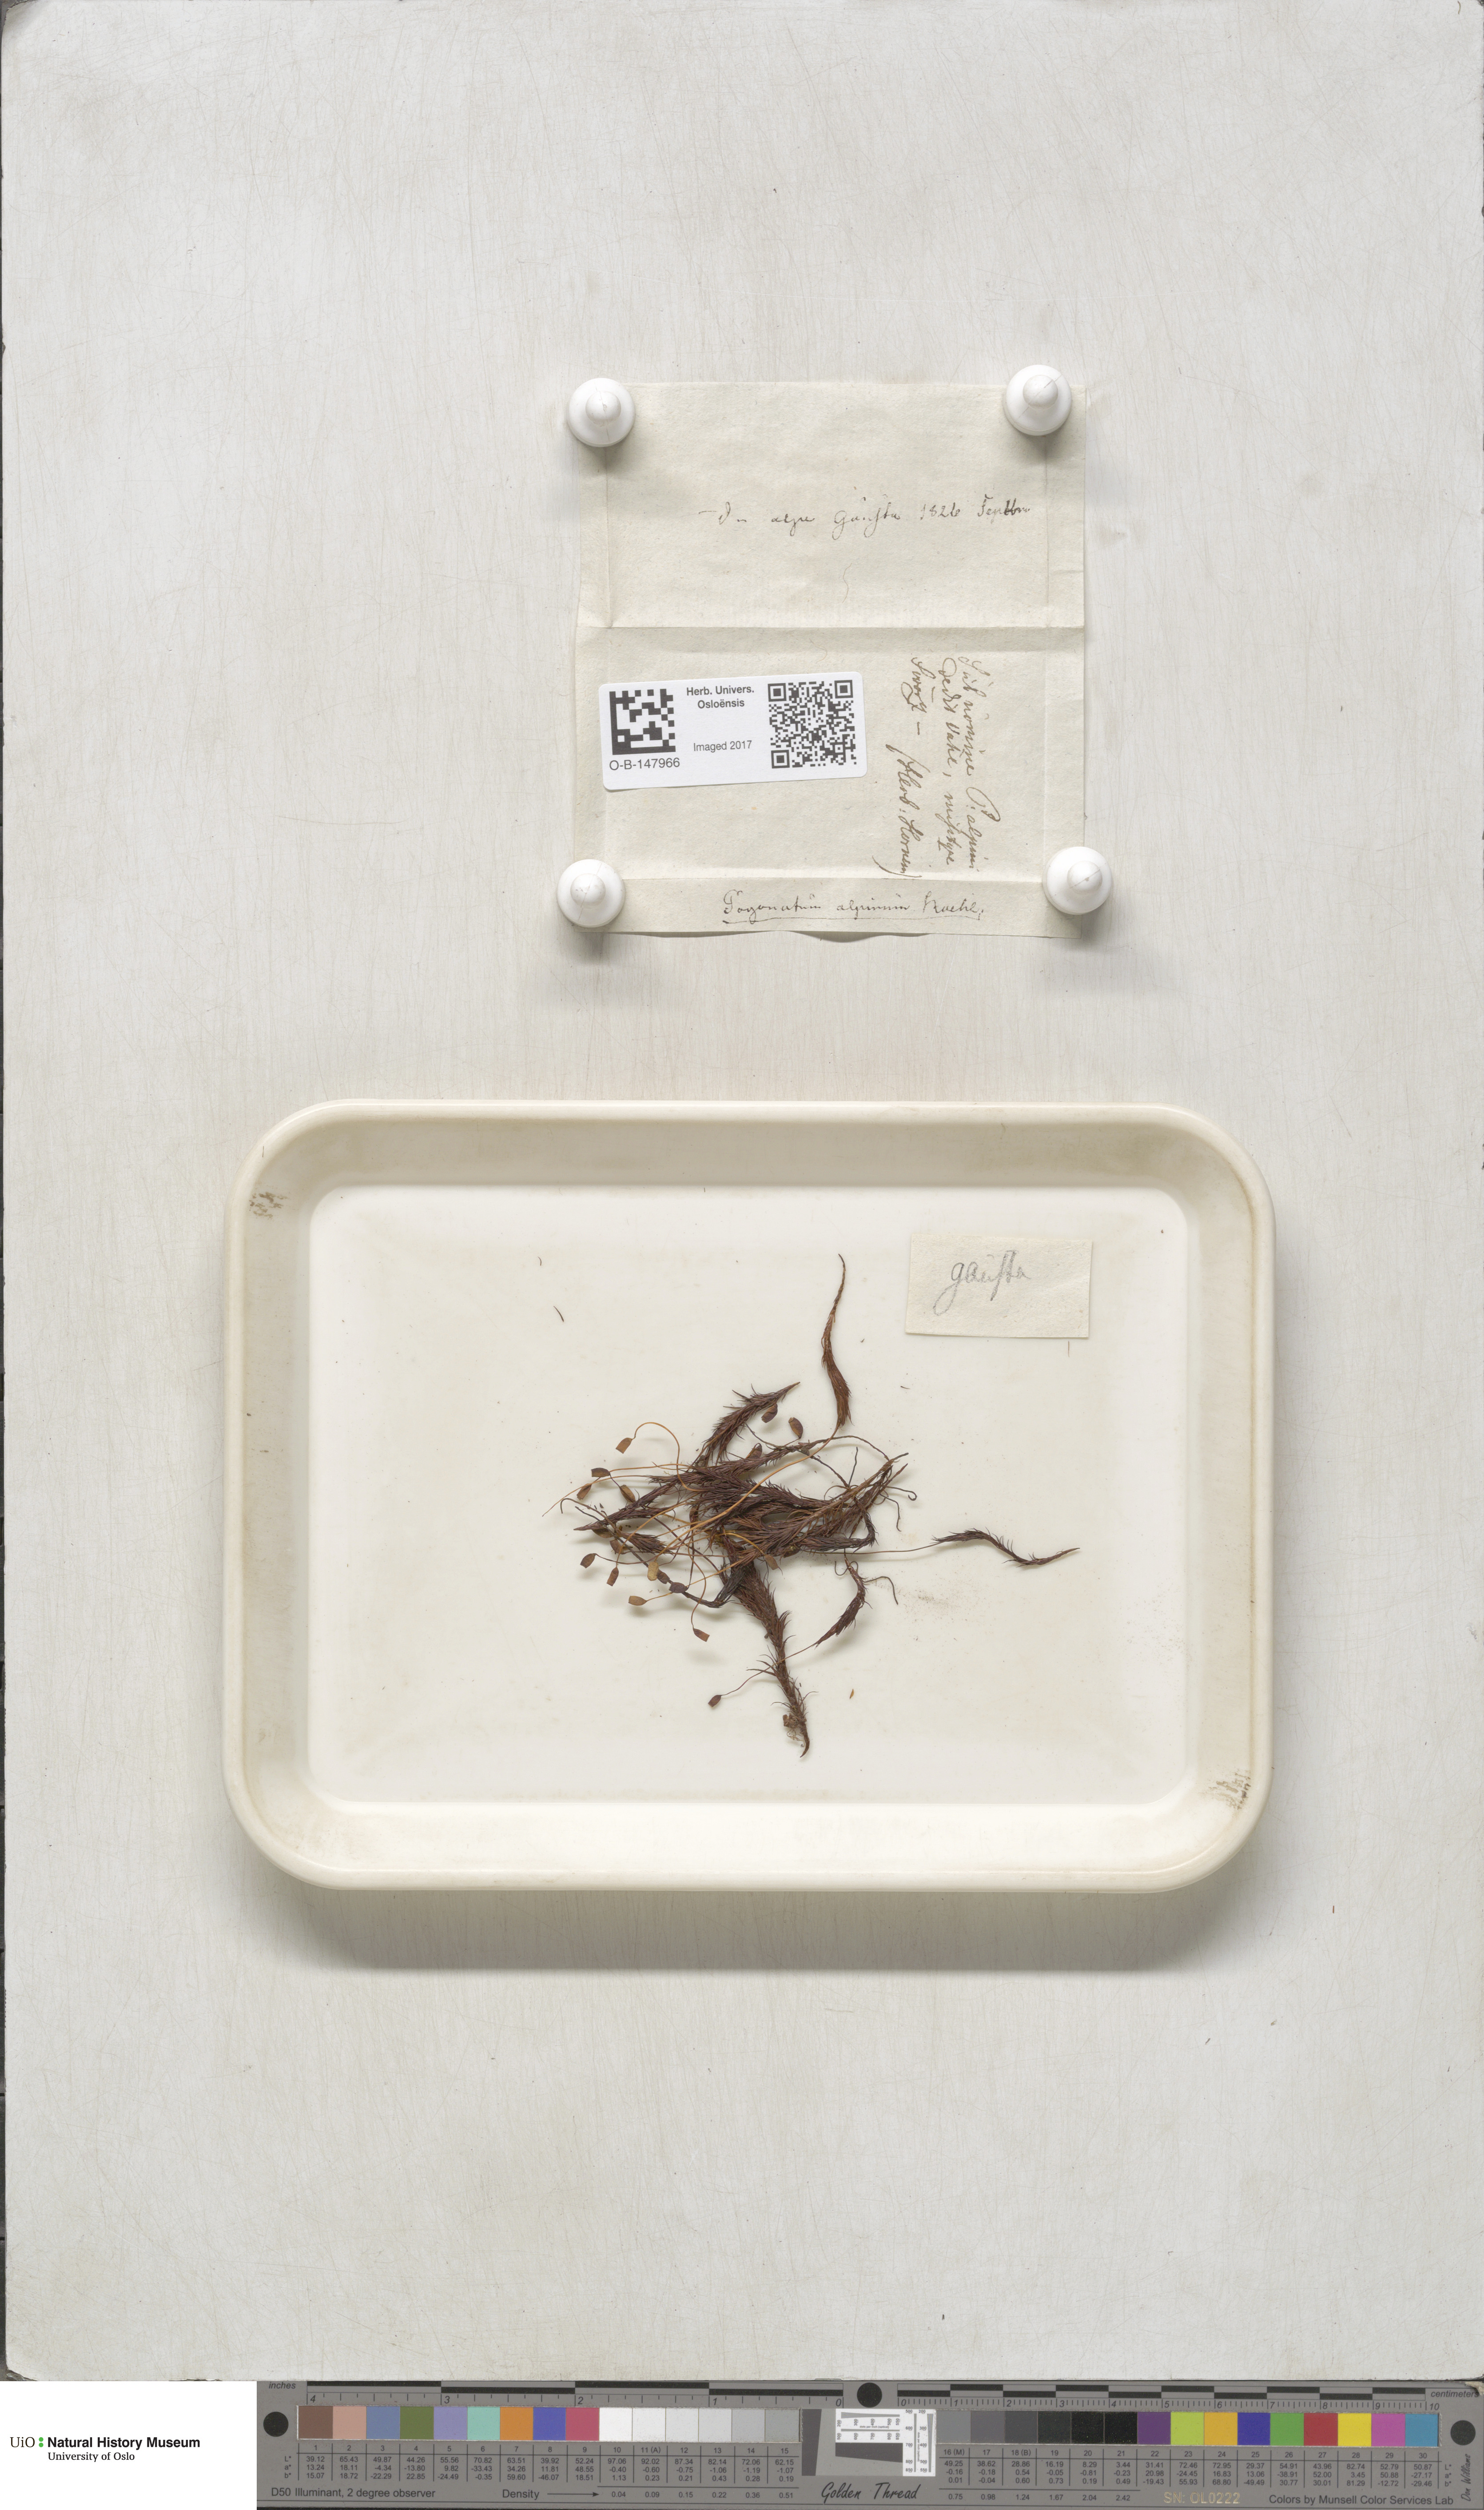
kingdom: Plantae
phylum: Bryophyta
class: Polytrichopsida
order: Polytrichales
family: Polytrichaceae
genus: Polytrichastrum
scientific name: Polytrichastrum alpinum
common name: Alpine haircap
